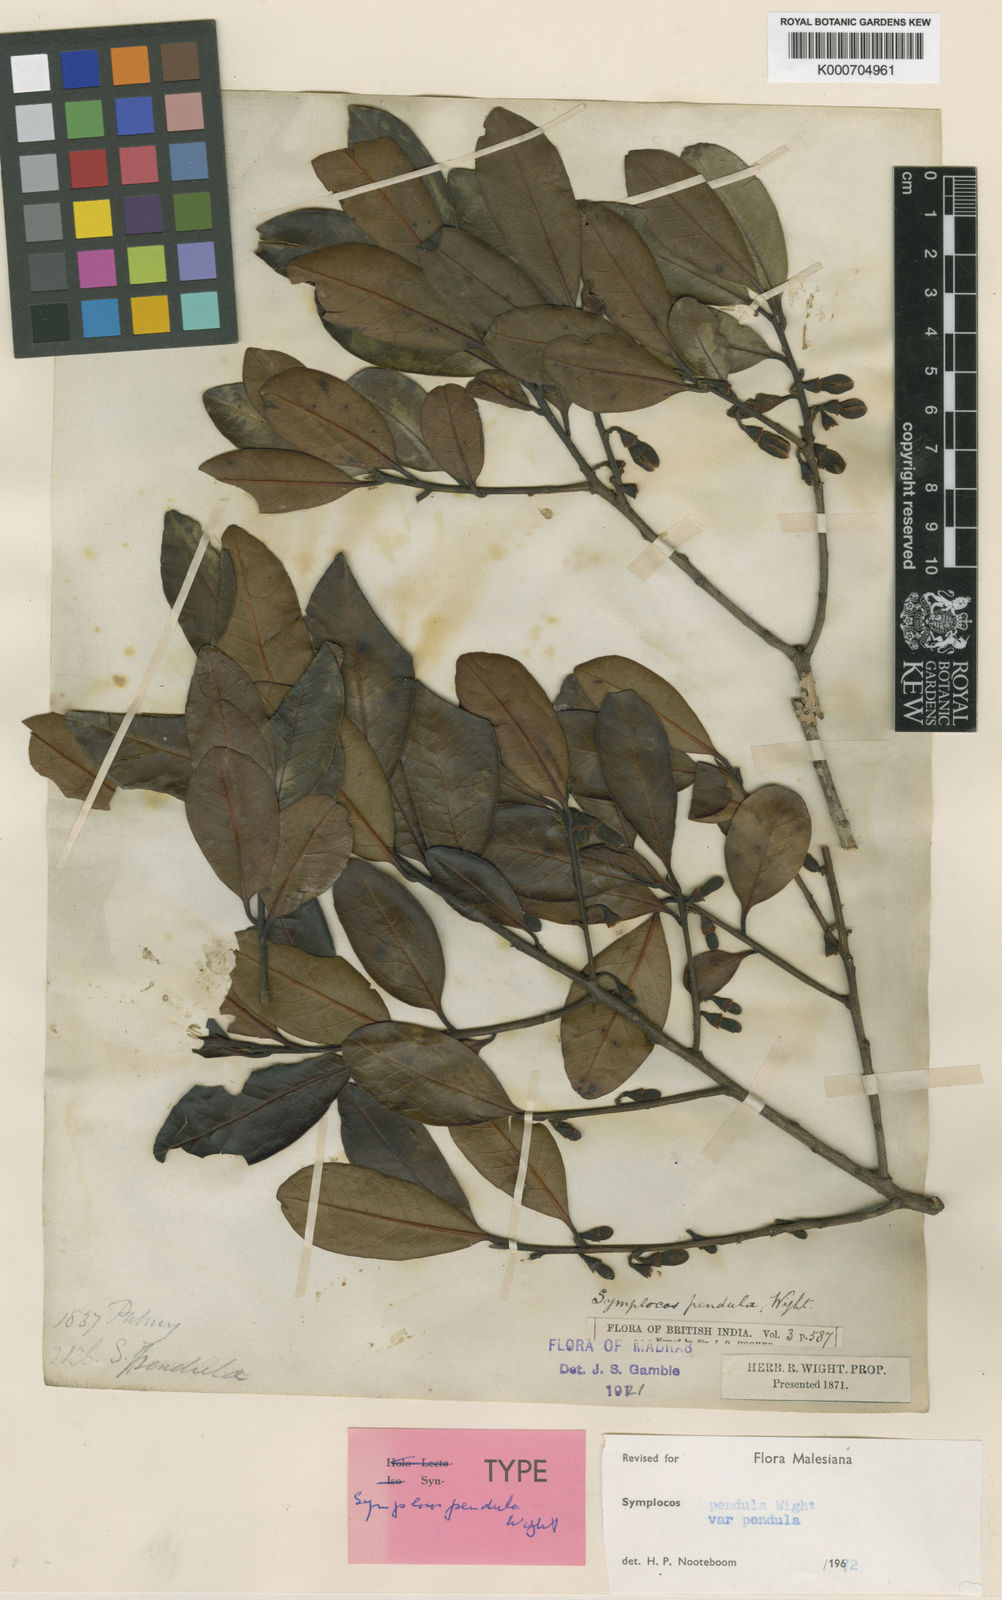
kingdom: Plantae
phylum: Tracheophyta
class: Magnoliopsida
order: Ericales
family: Symplocaceae
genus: Symplocos
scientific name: Symplocos pendula
